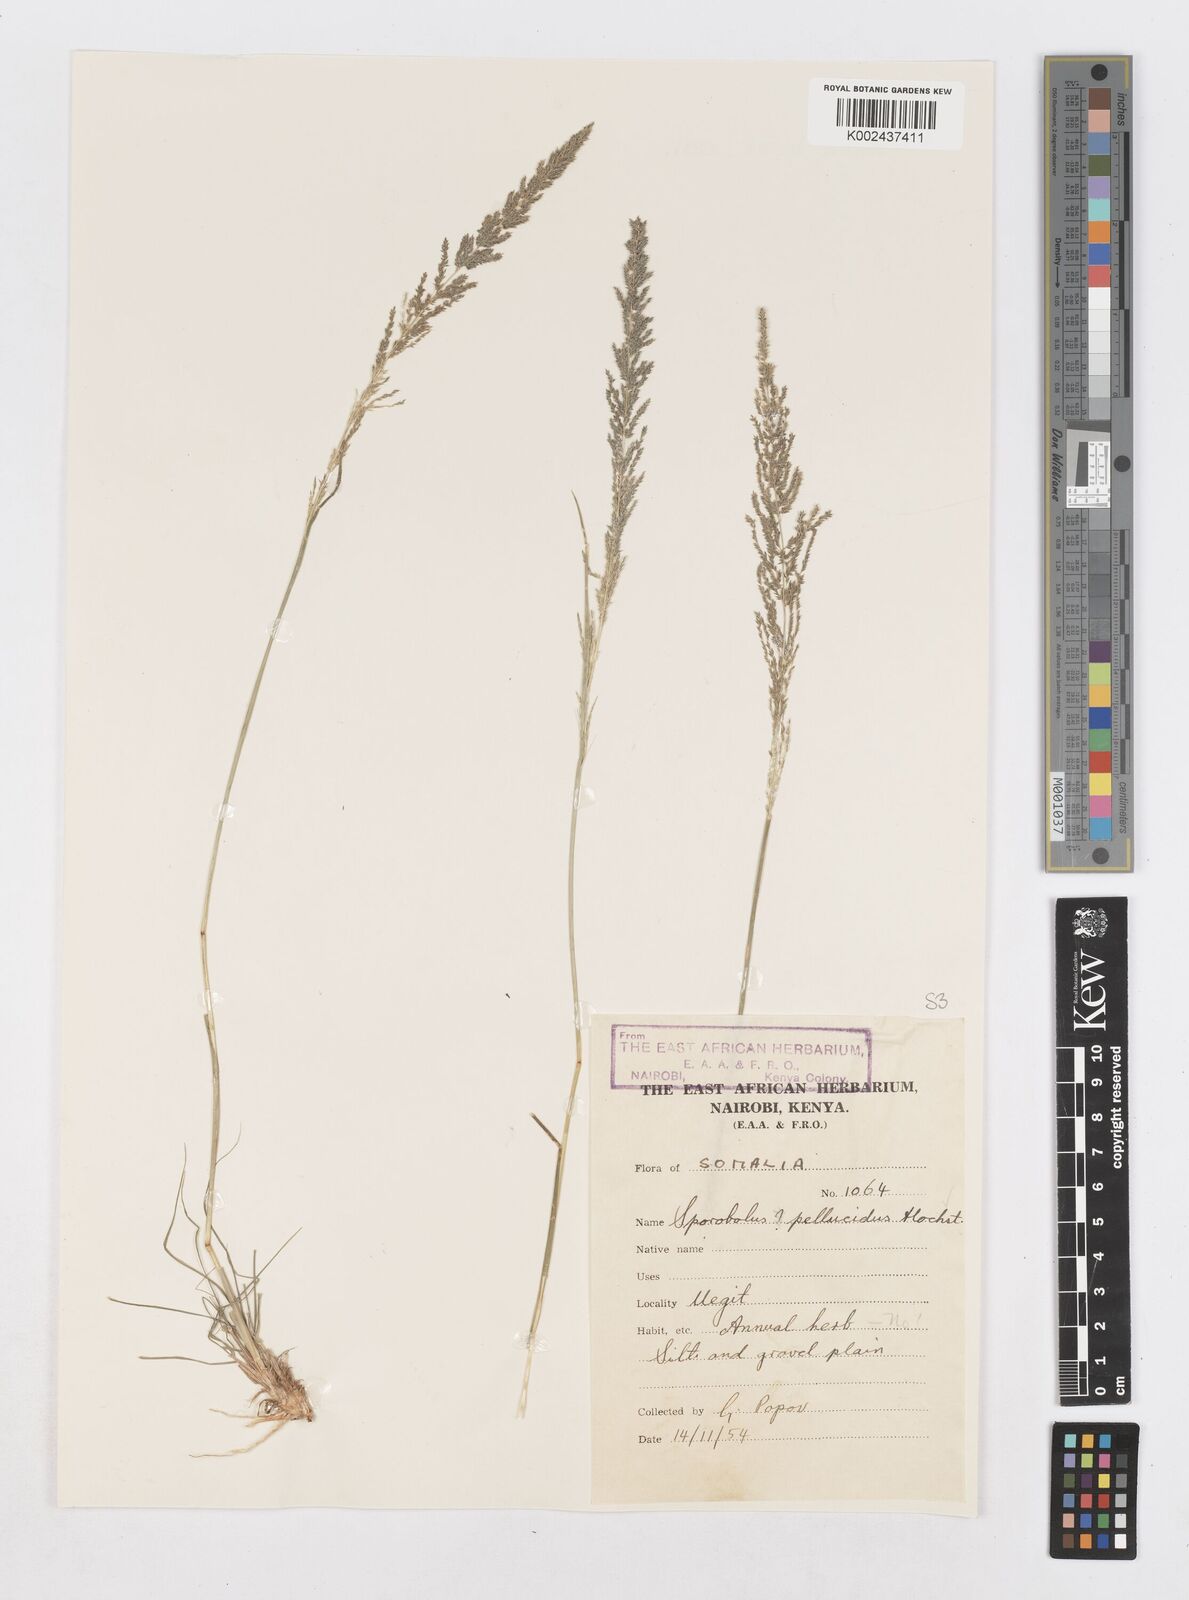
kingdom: Plantae
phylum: Tracheophyta
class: Liliopsida
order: Poales
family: Poaceae
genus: Sporobolus
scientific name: Sporobolus pellucidus
